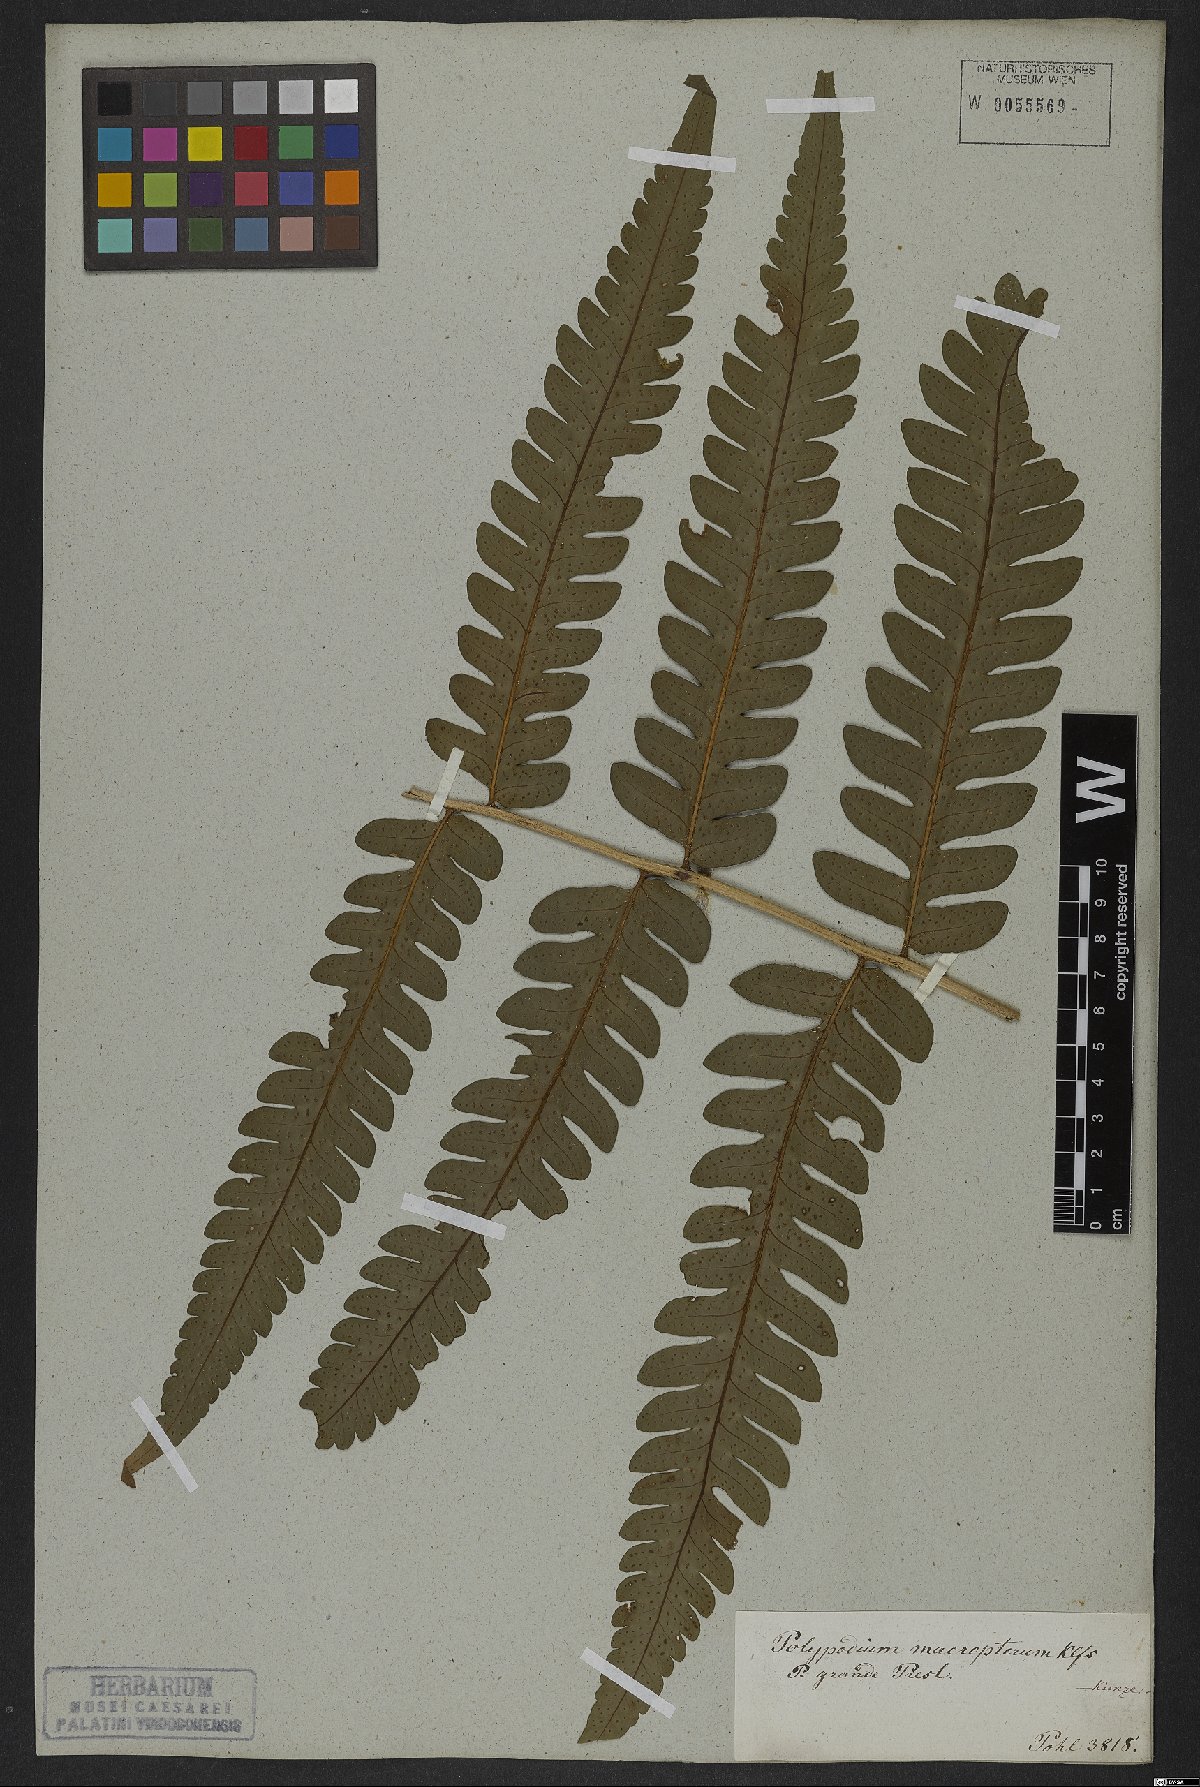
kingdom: Plantae
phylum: Tracheophyta
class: Polypodiopsida
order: Polypodiales
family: Dryopteridaceae
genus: Megalastrum
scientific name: Megalastrum grande
